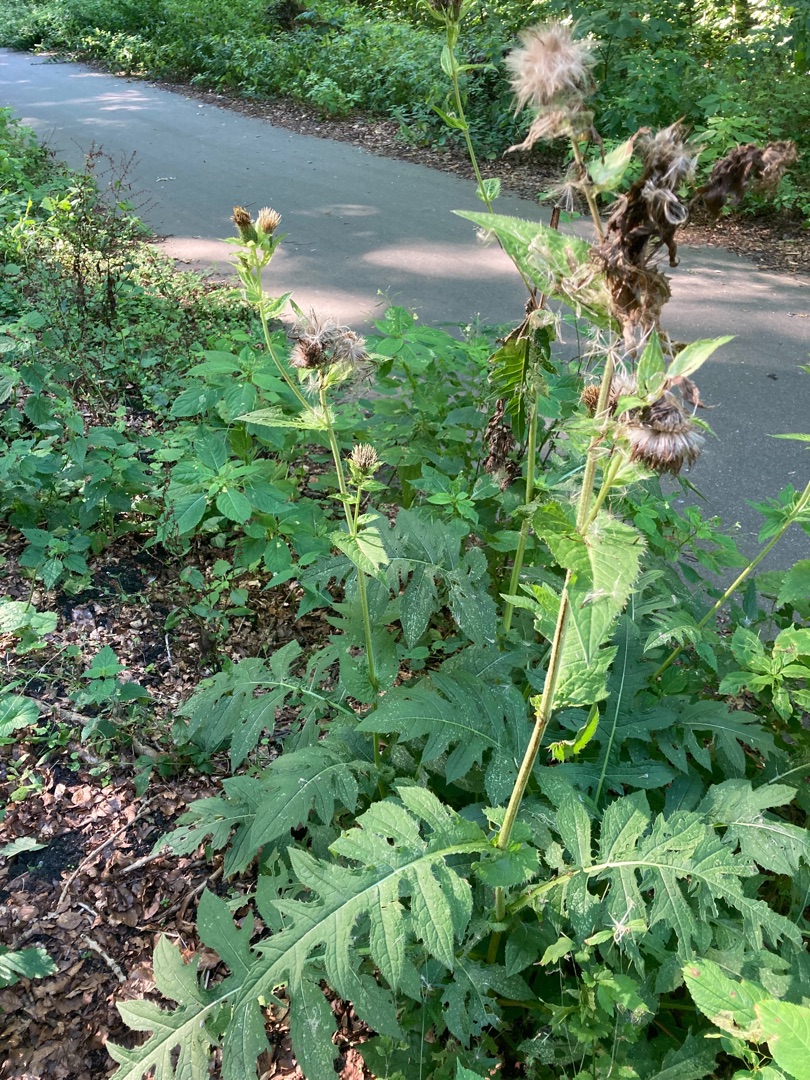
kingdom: Plantae
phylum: Tracheophyta
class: Magnoliopsida
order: Asterales
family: Asteraceae
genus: Cirsium
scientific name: Cirsium oleraceum
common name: Kål-tidsel
